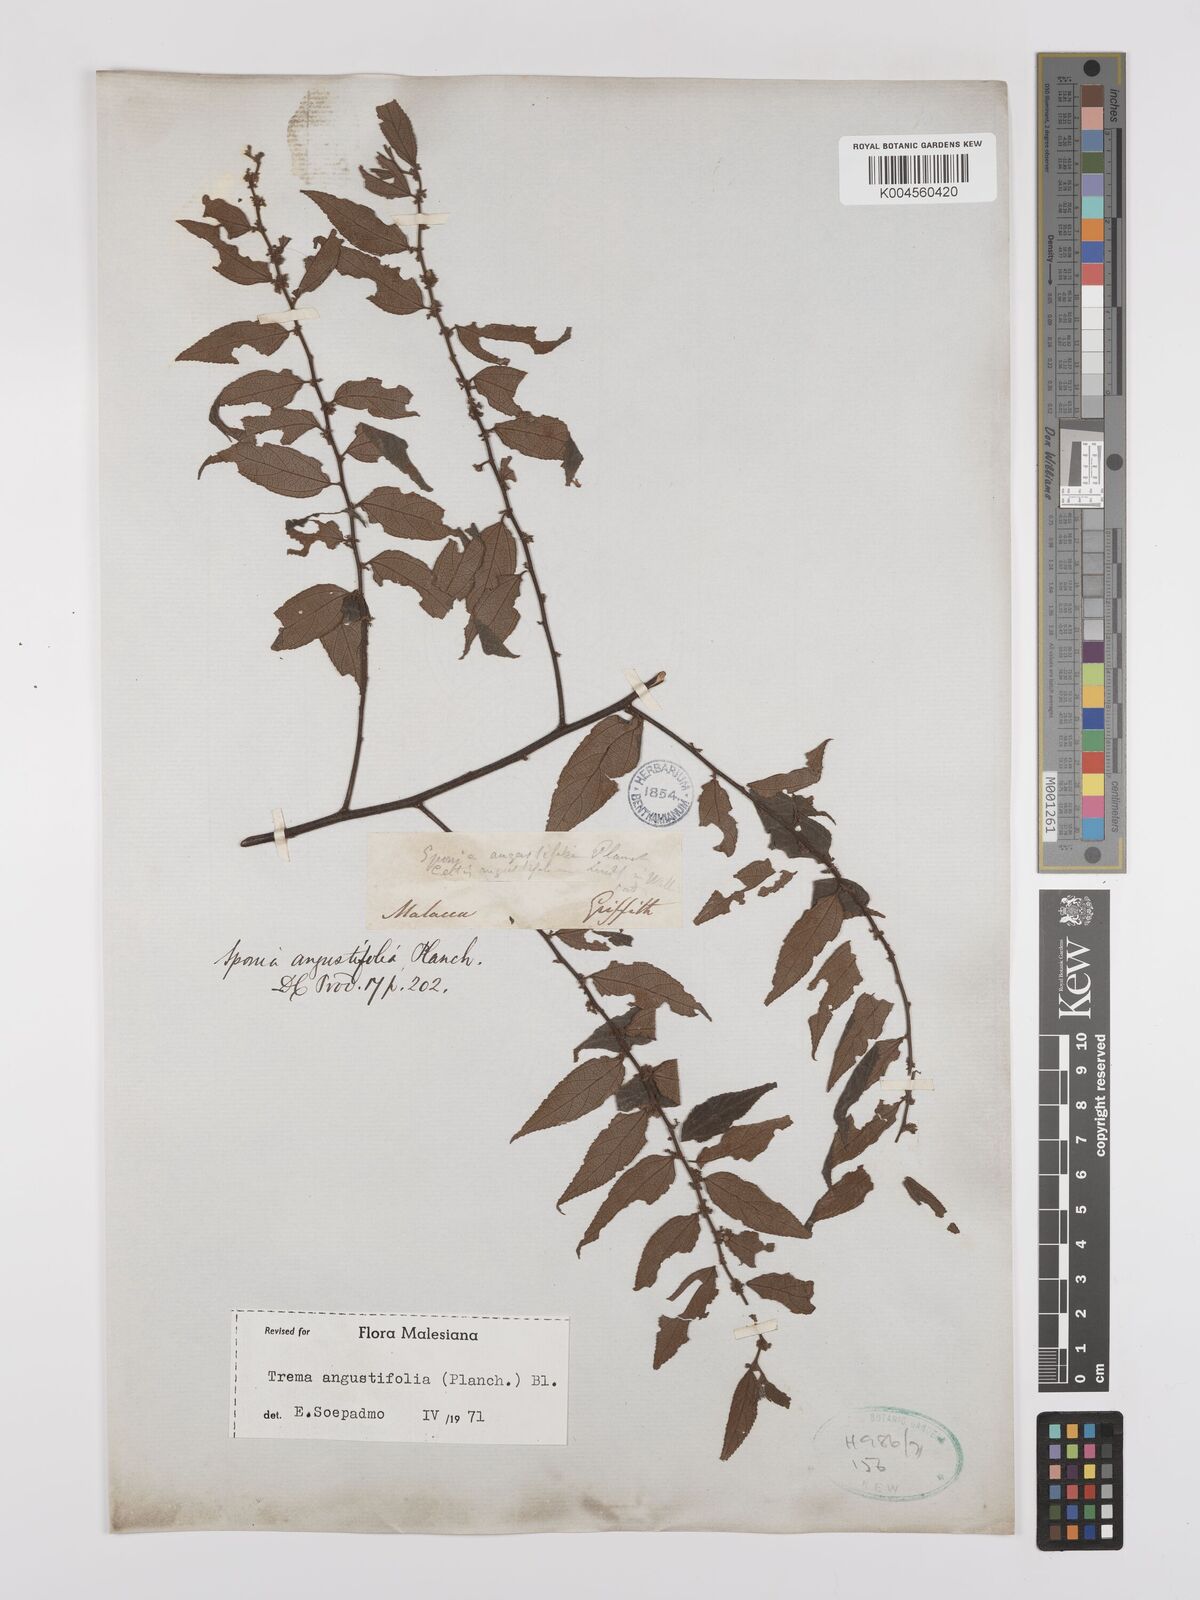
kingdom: Plantae
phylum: Tracheophyta
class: Magnoliopsida
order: Rosales
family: Cannabaceae
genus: Trema
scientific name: Trema angustifolium
